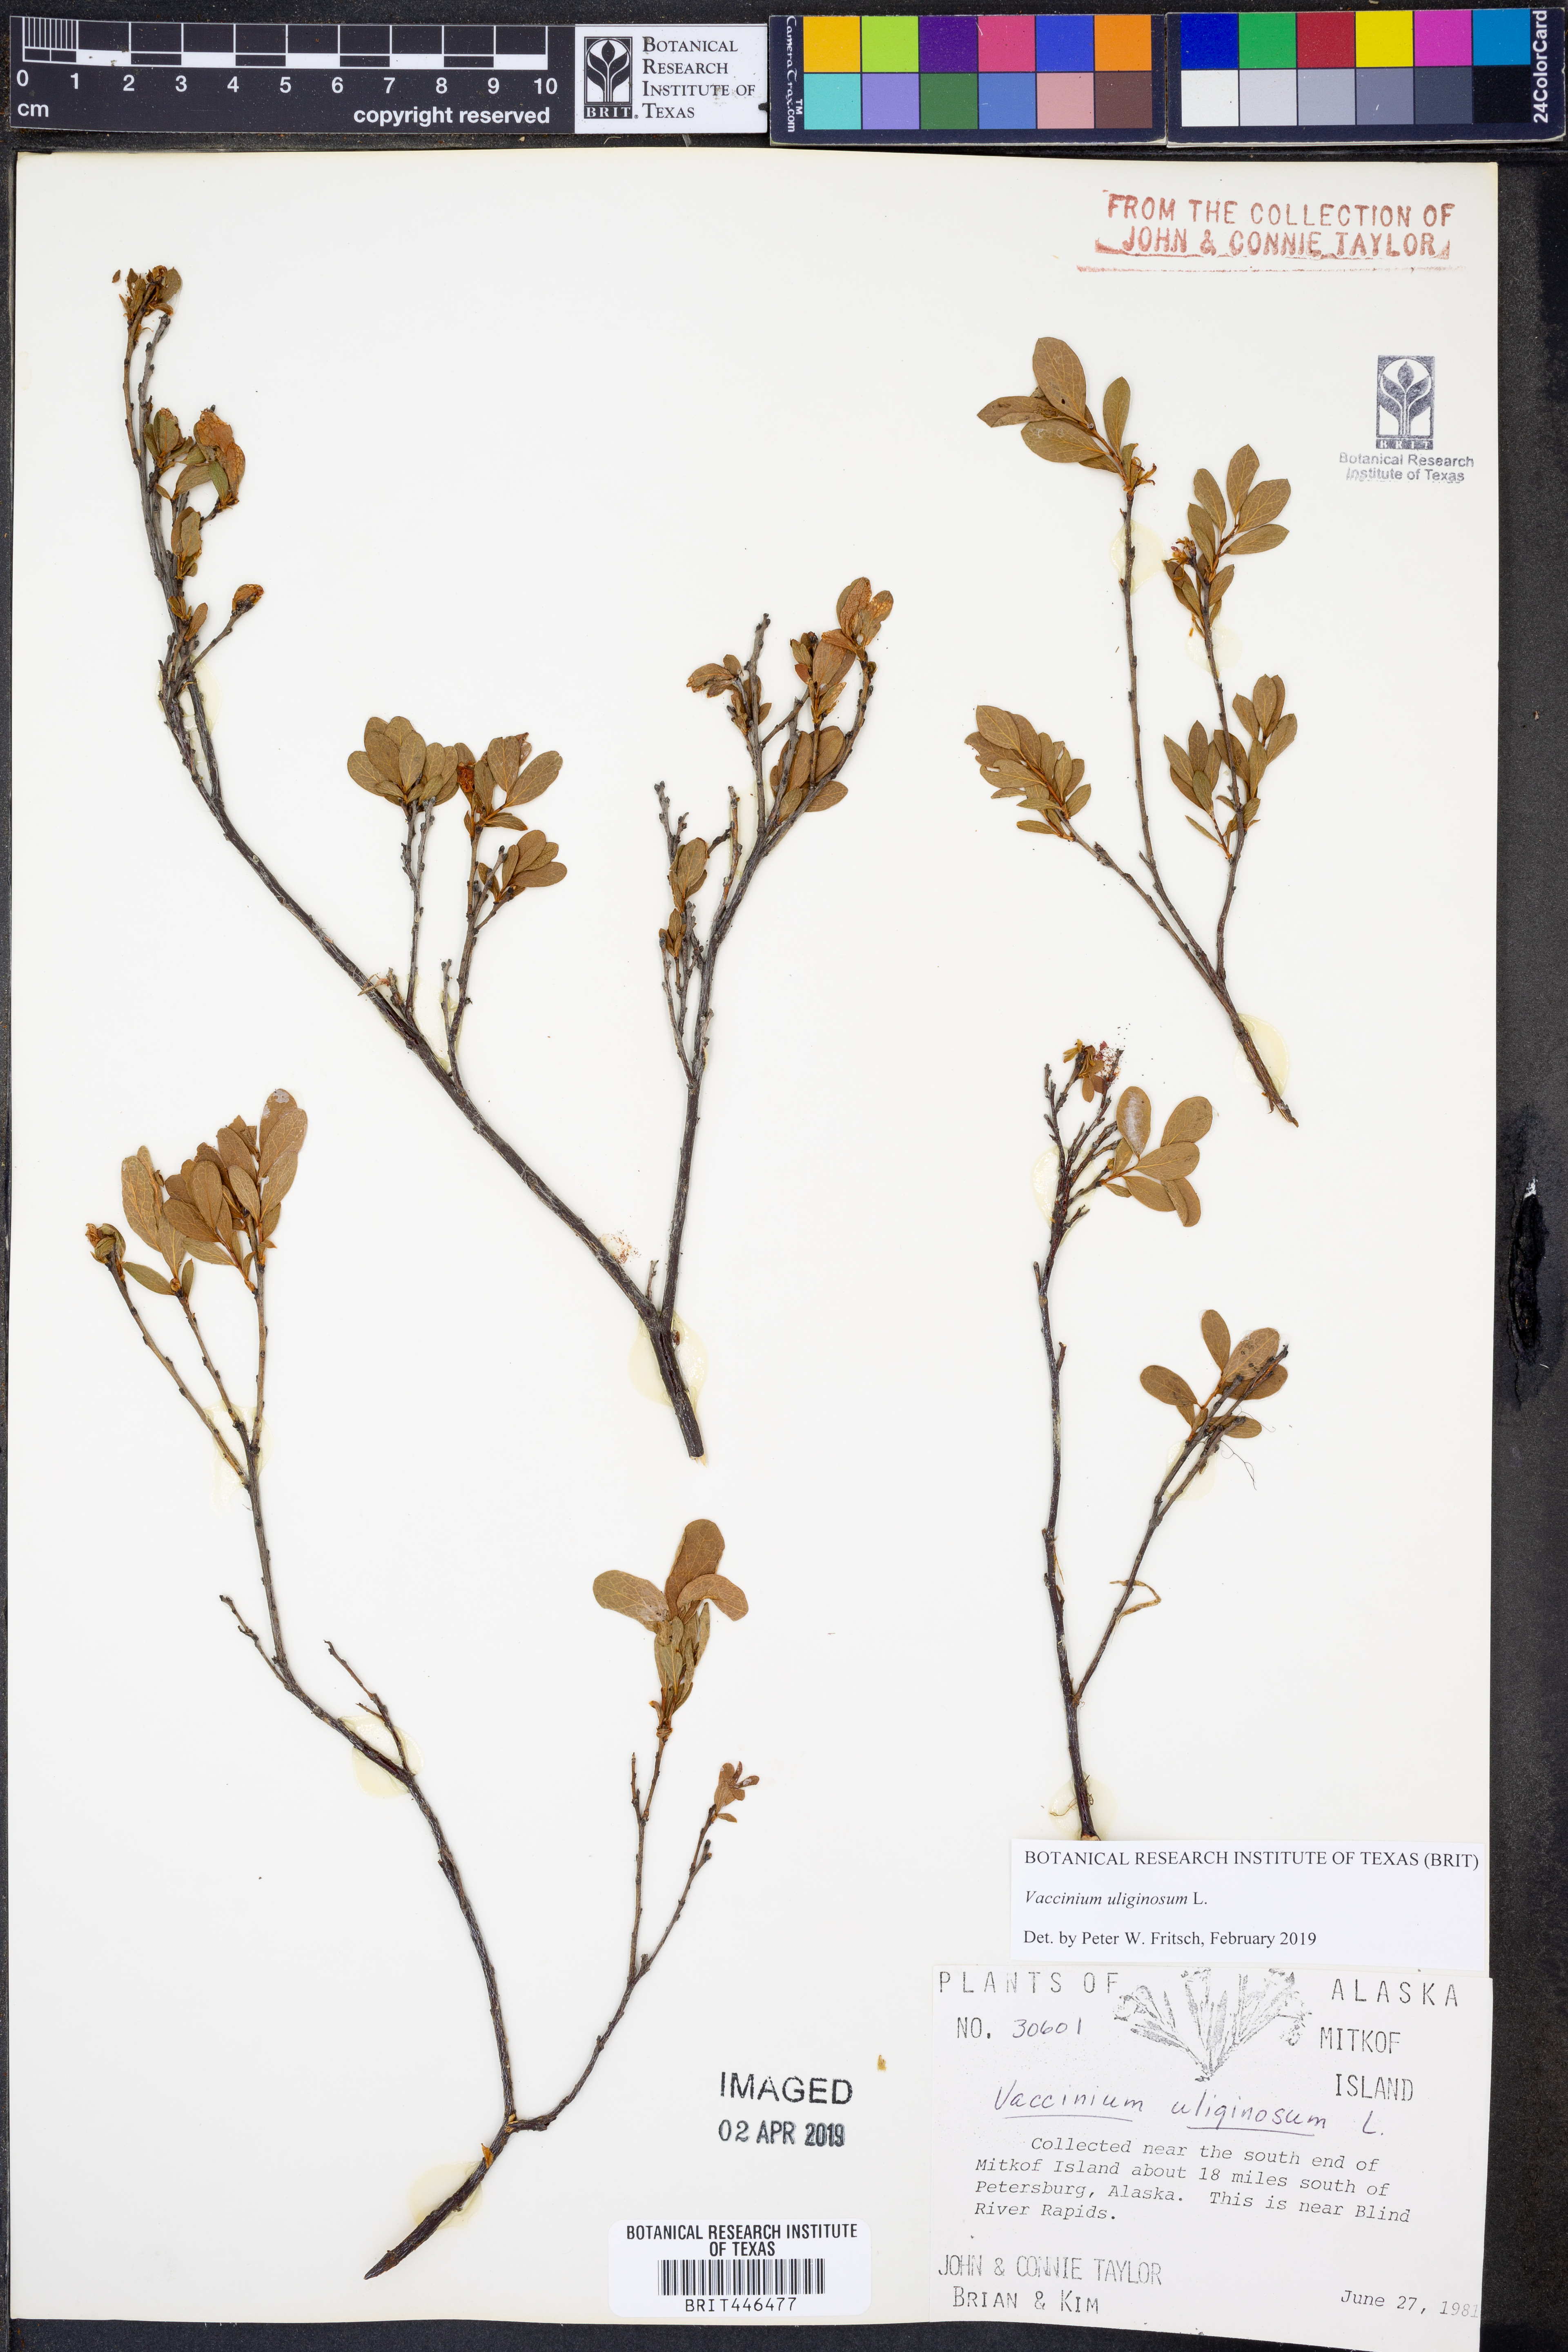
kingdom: Plantae
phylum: Tracheophyta
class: Magnoliopsida
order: Ericales
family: Ericaceae
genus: Vaccinium
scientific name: Vaccinium uliginosum
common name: Bog bilberry
